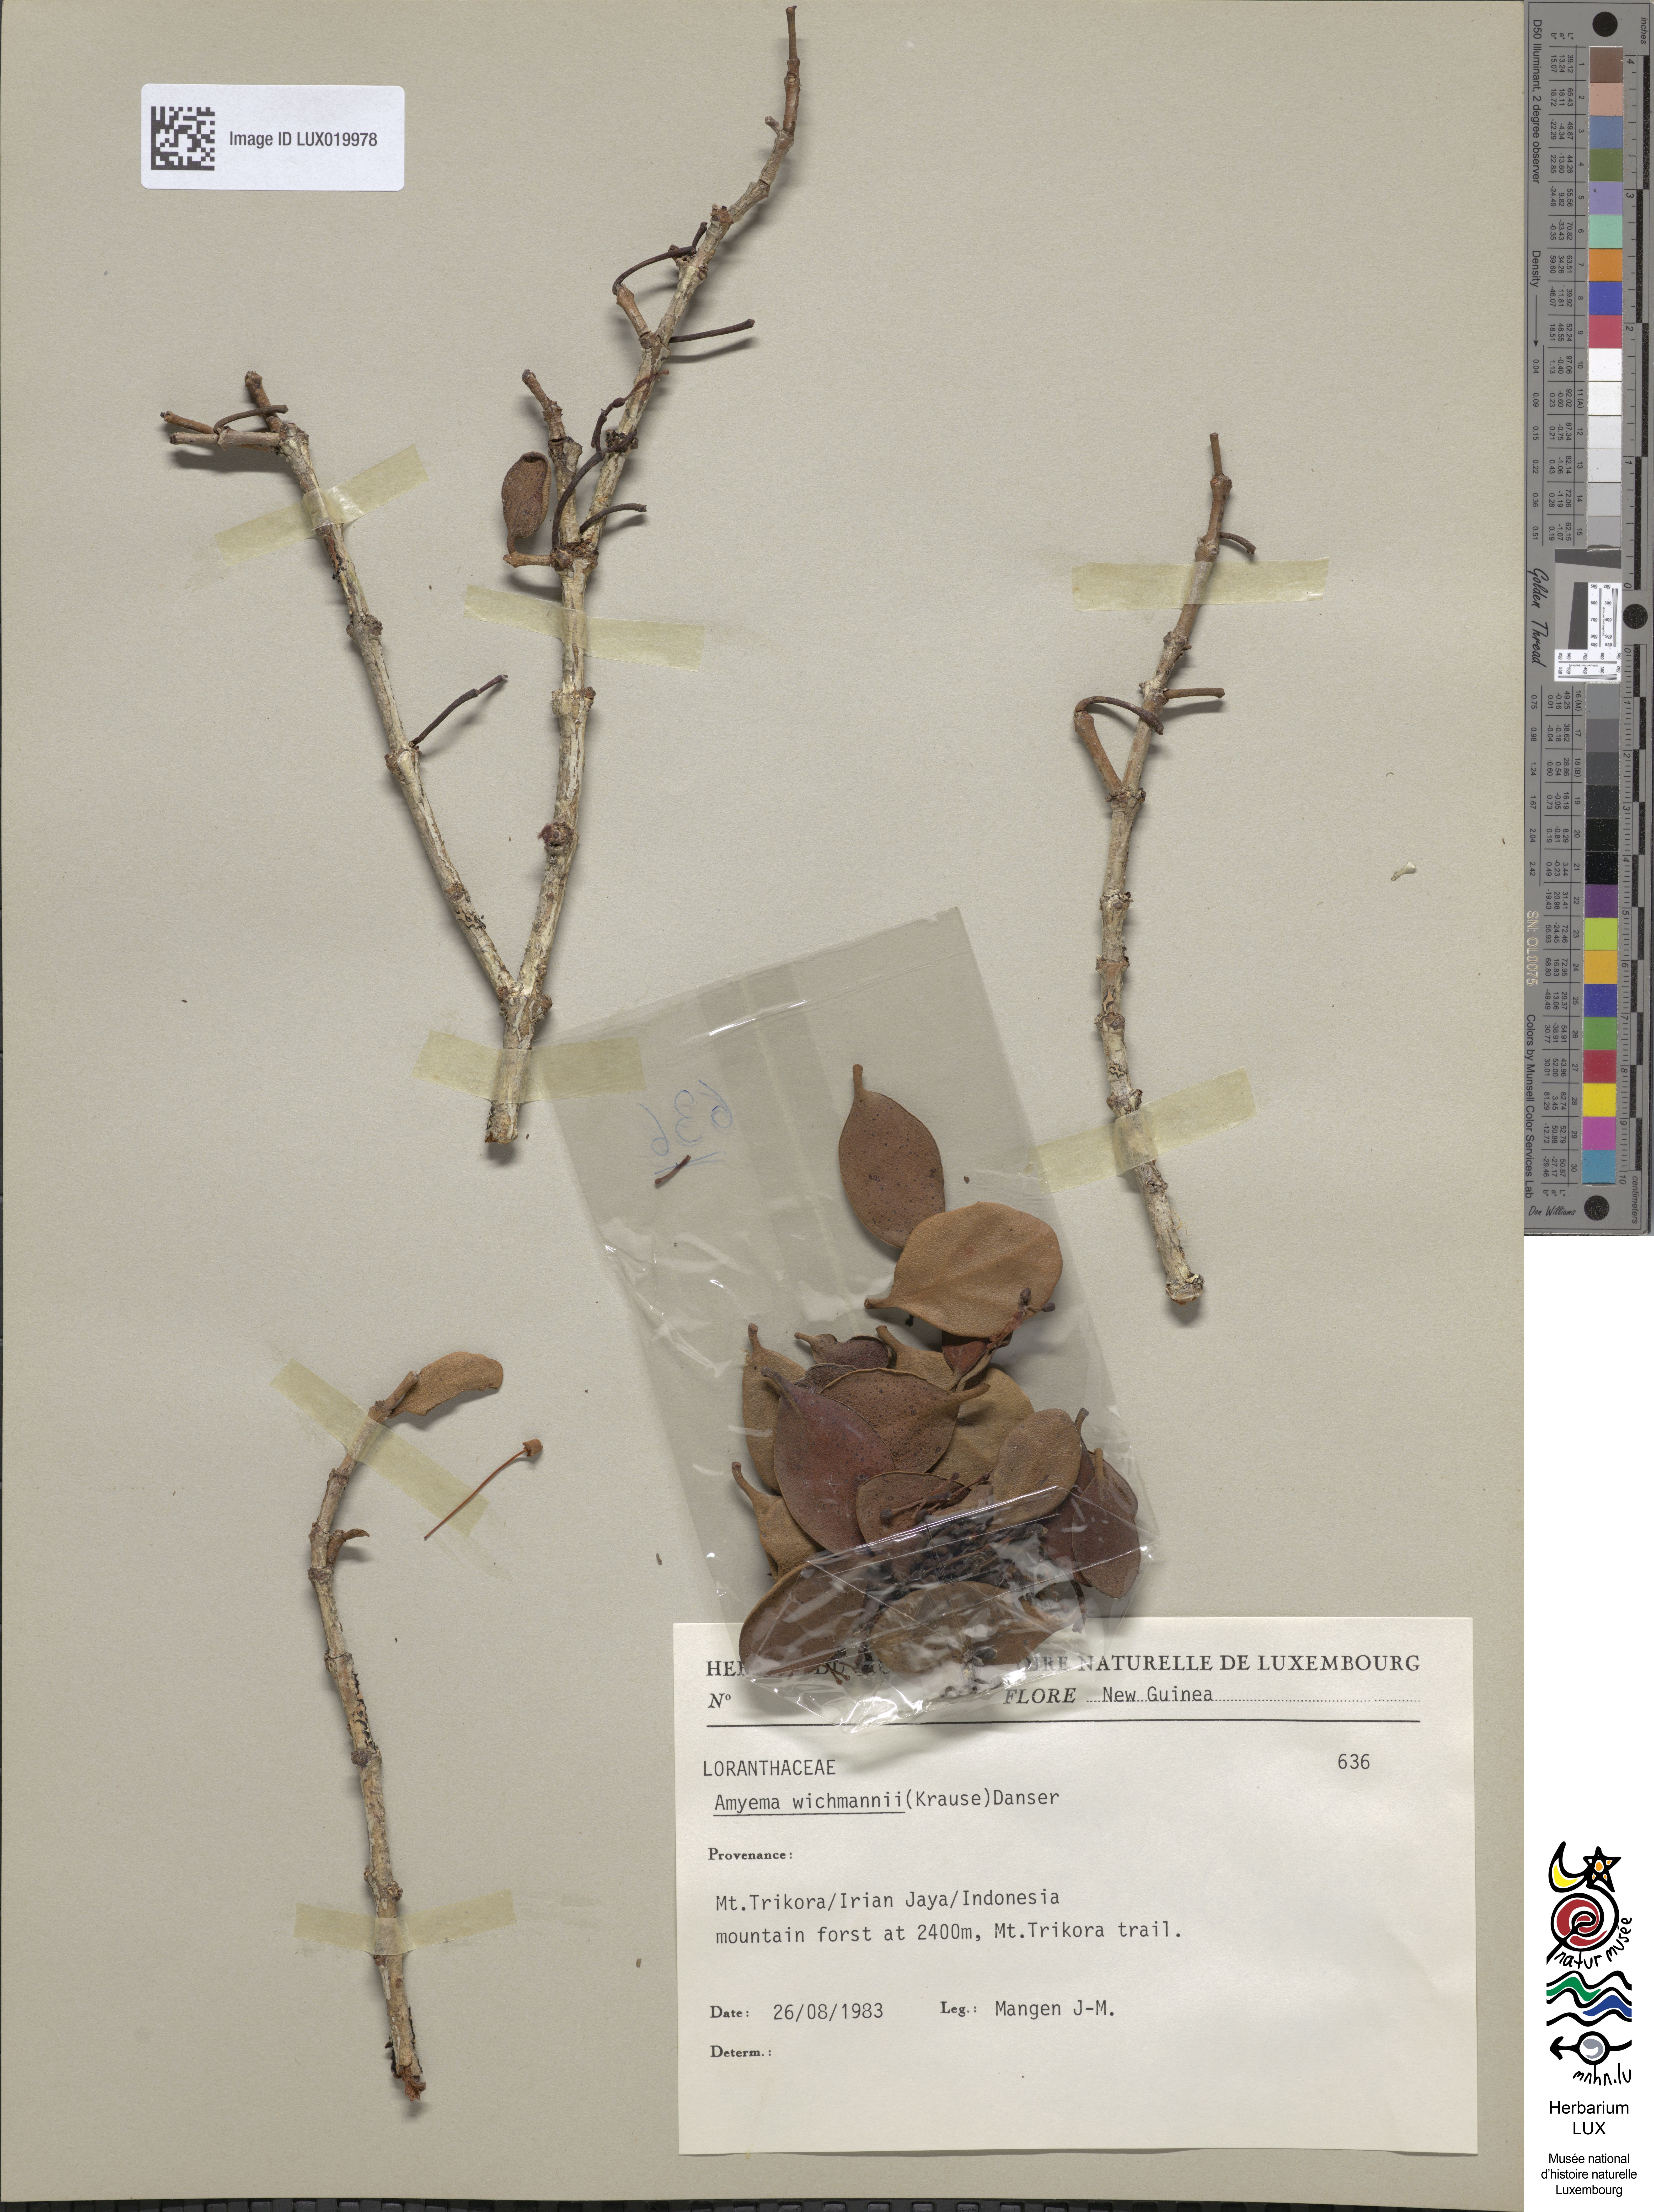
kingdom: Plantae
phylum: Tracheophyta
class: Magnoliopsida
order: Santalales
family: Loranthaceae
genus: Amyema
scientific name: Amyema wichmannii
